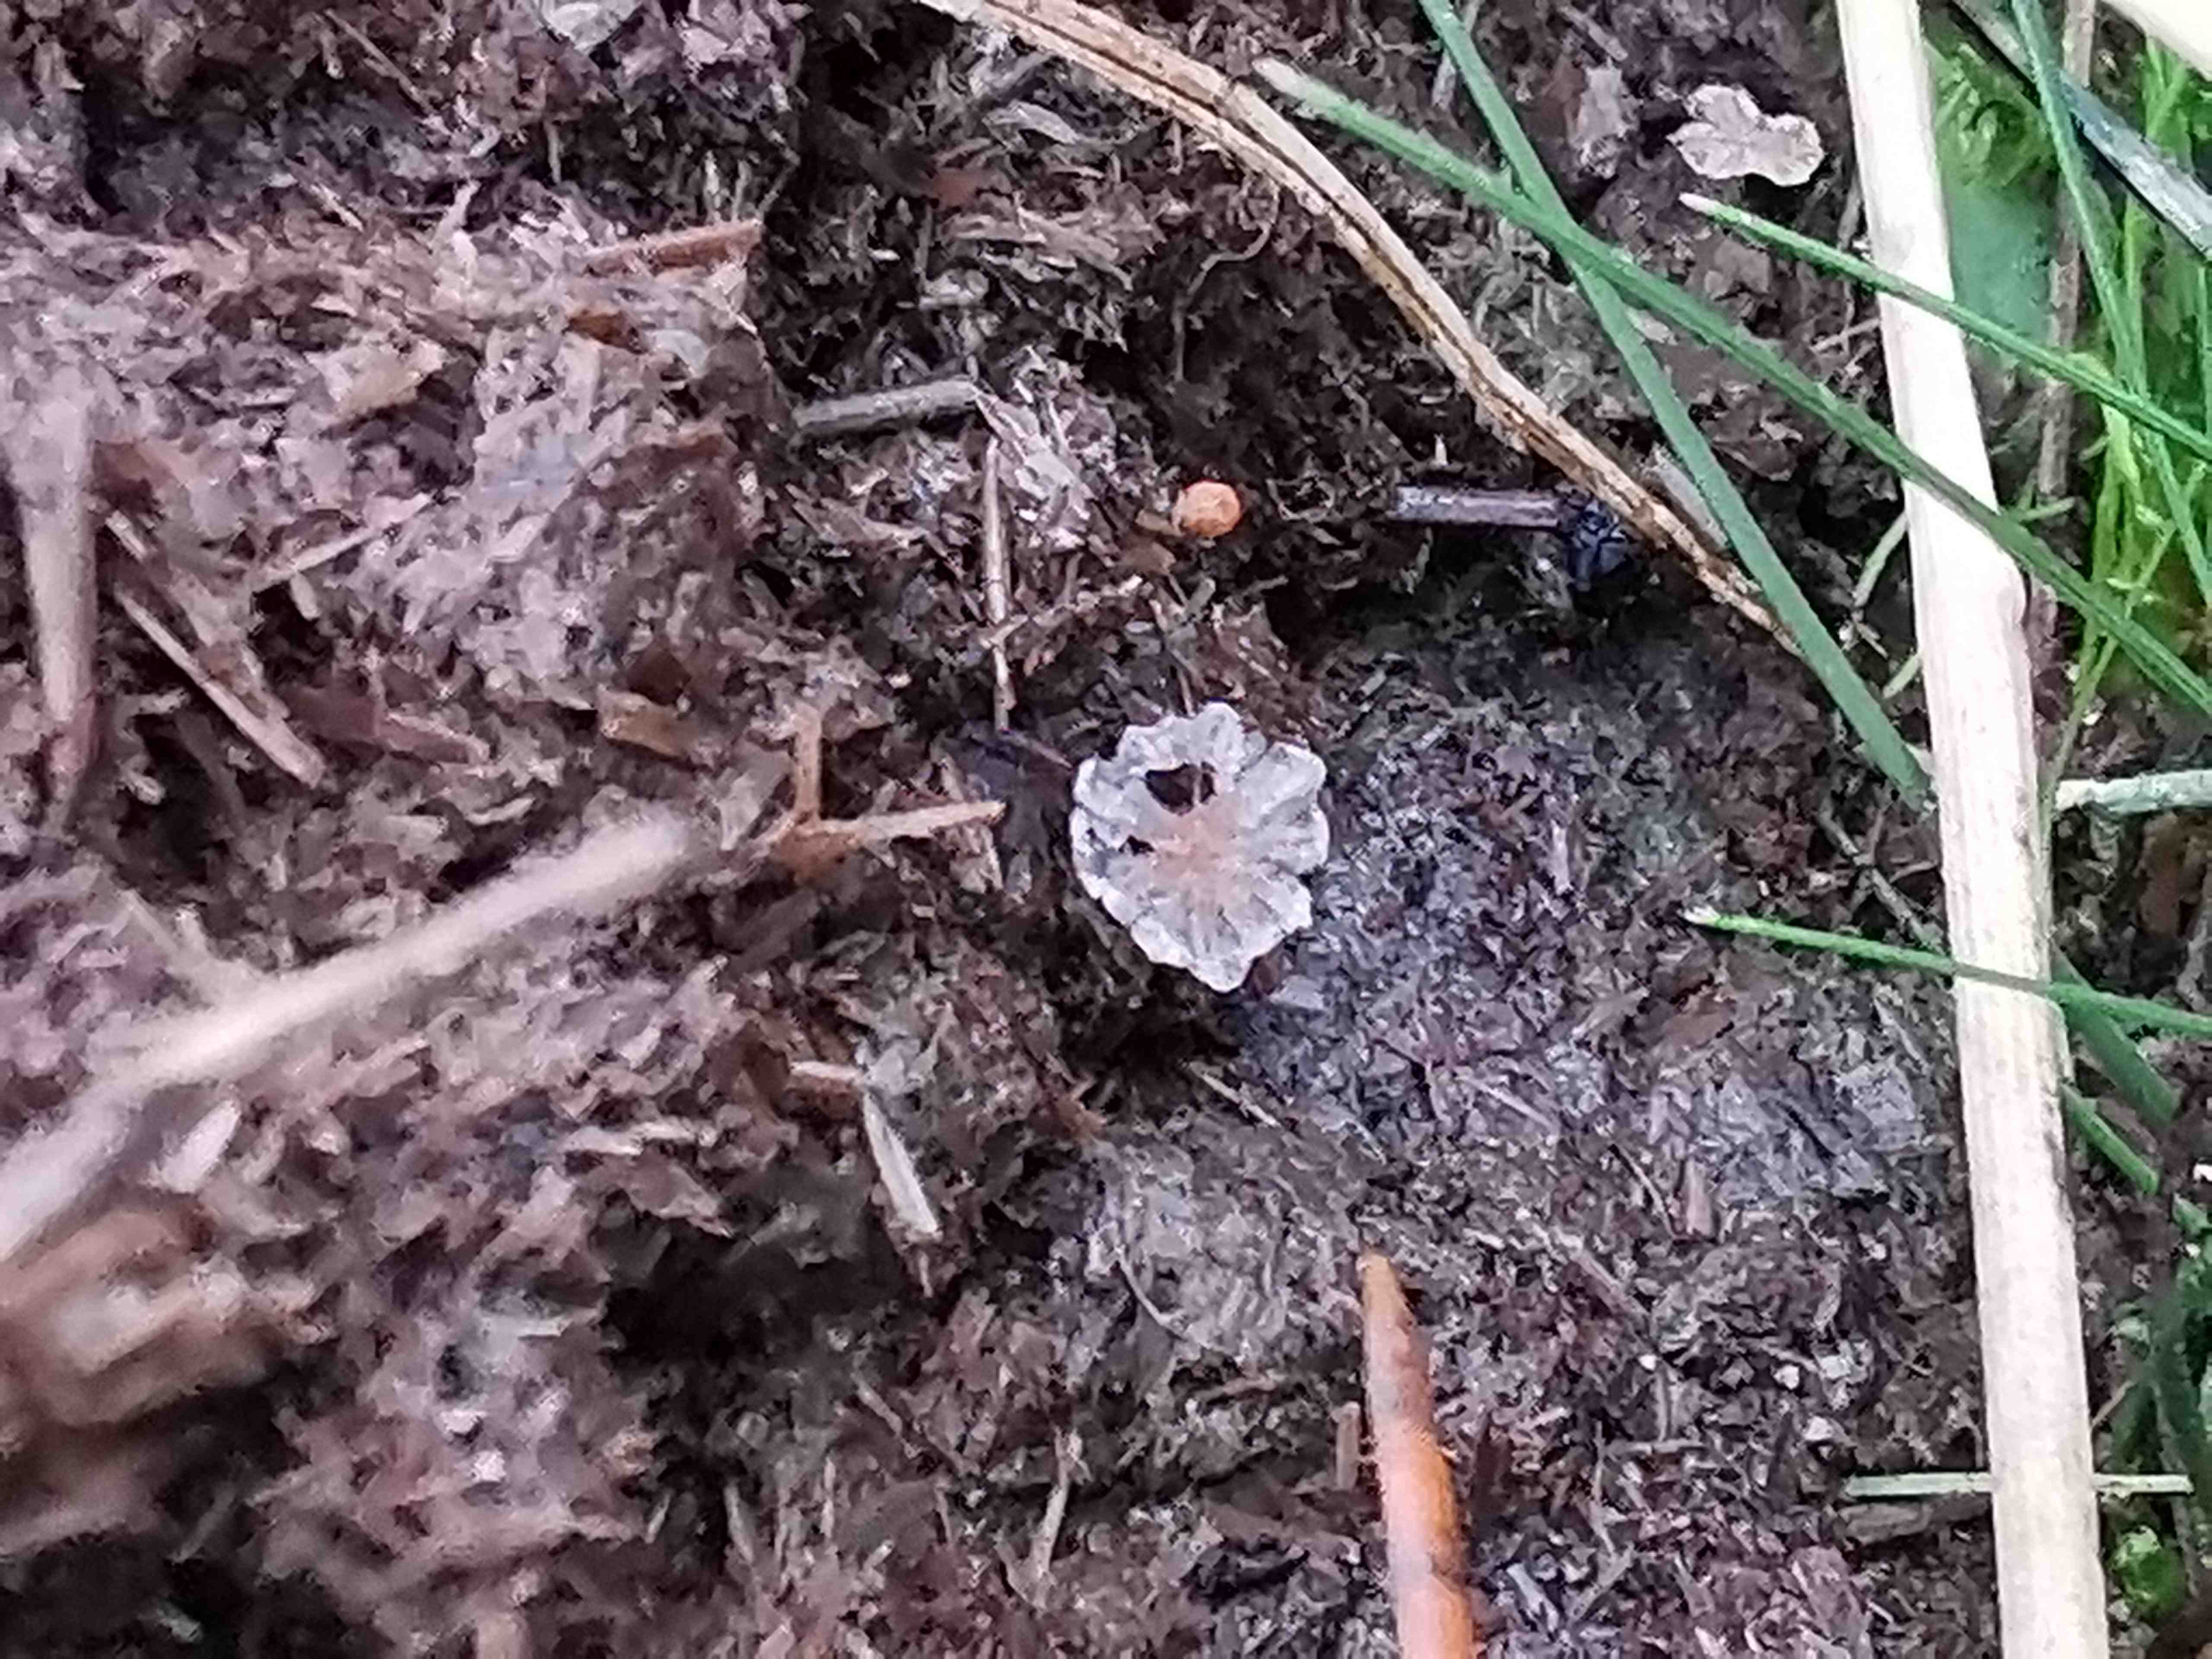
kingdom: Fungi
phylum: Basidiomycota
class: Agaricomycetes
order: Agaricales
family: Psathyrellaceae
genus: Parasola
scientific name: Parasola misera
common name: lillebitte hjulhat
